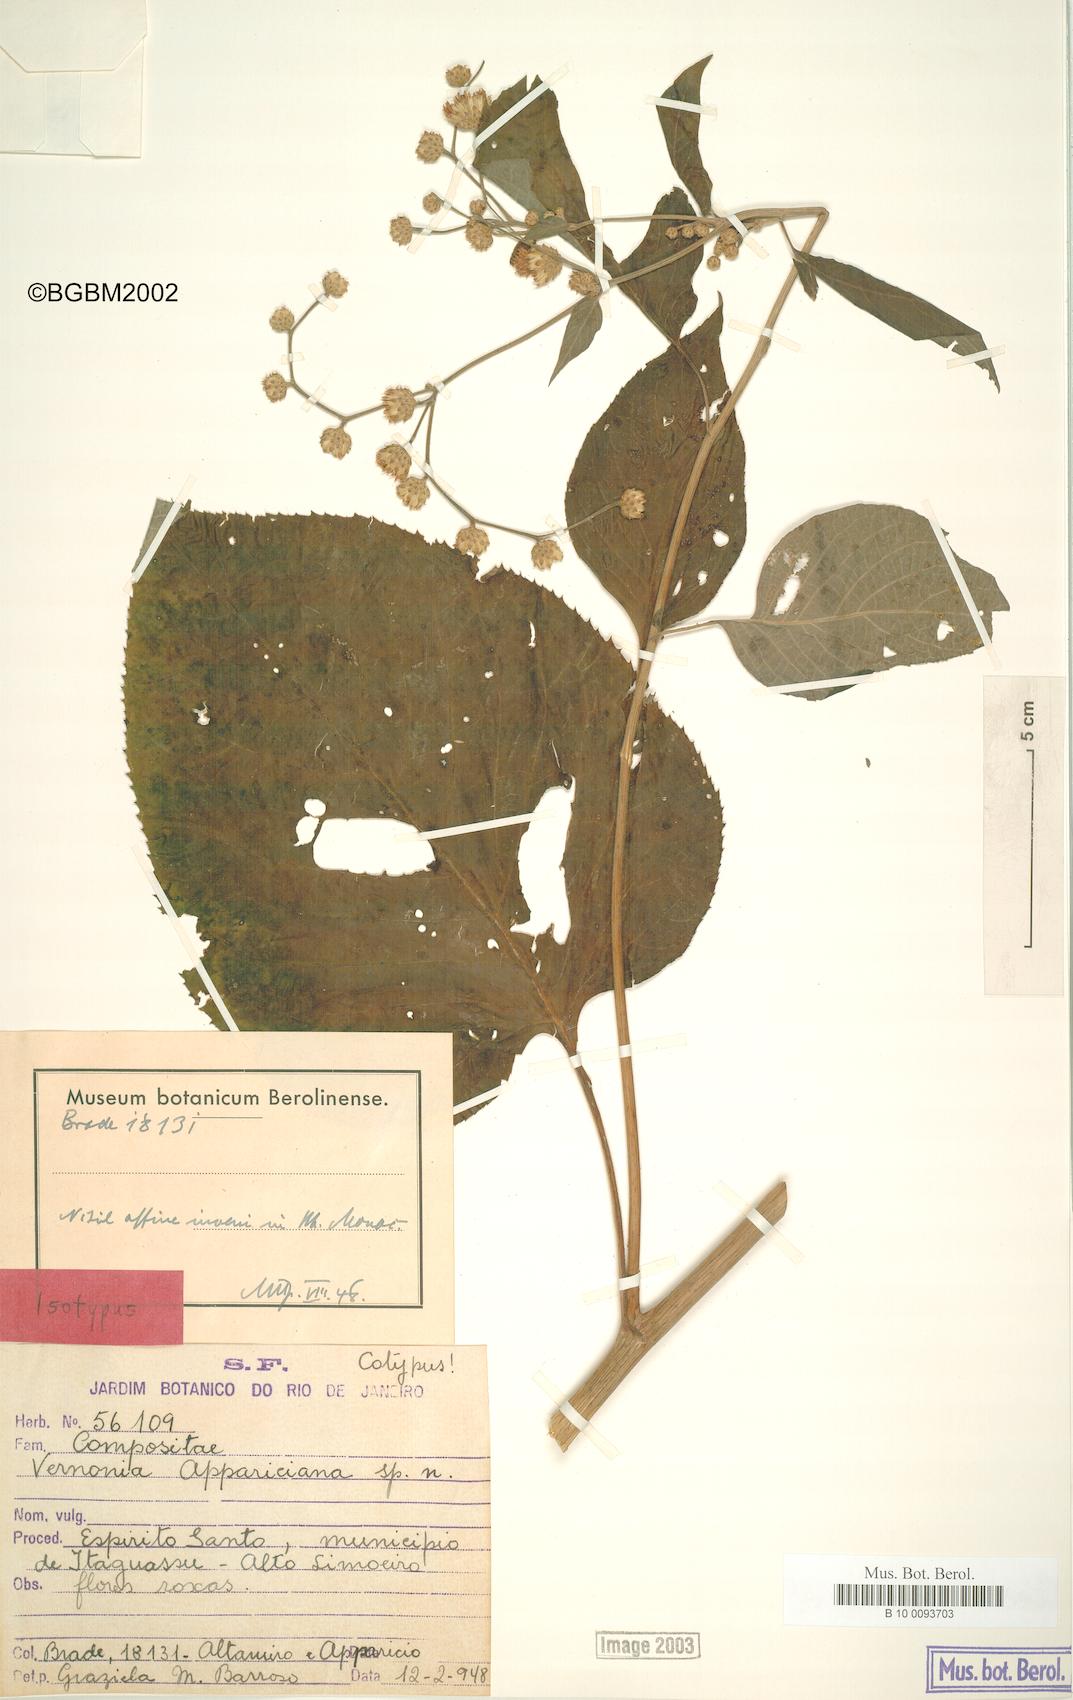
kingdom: Plantae
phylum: Tracheophyta
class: Magnoliopsida
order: Asterales
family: Asteraceae
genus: Vernonia
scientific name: Vernonia appariciana
